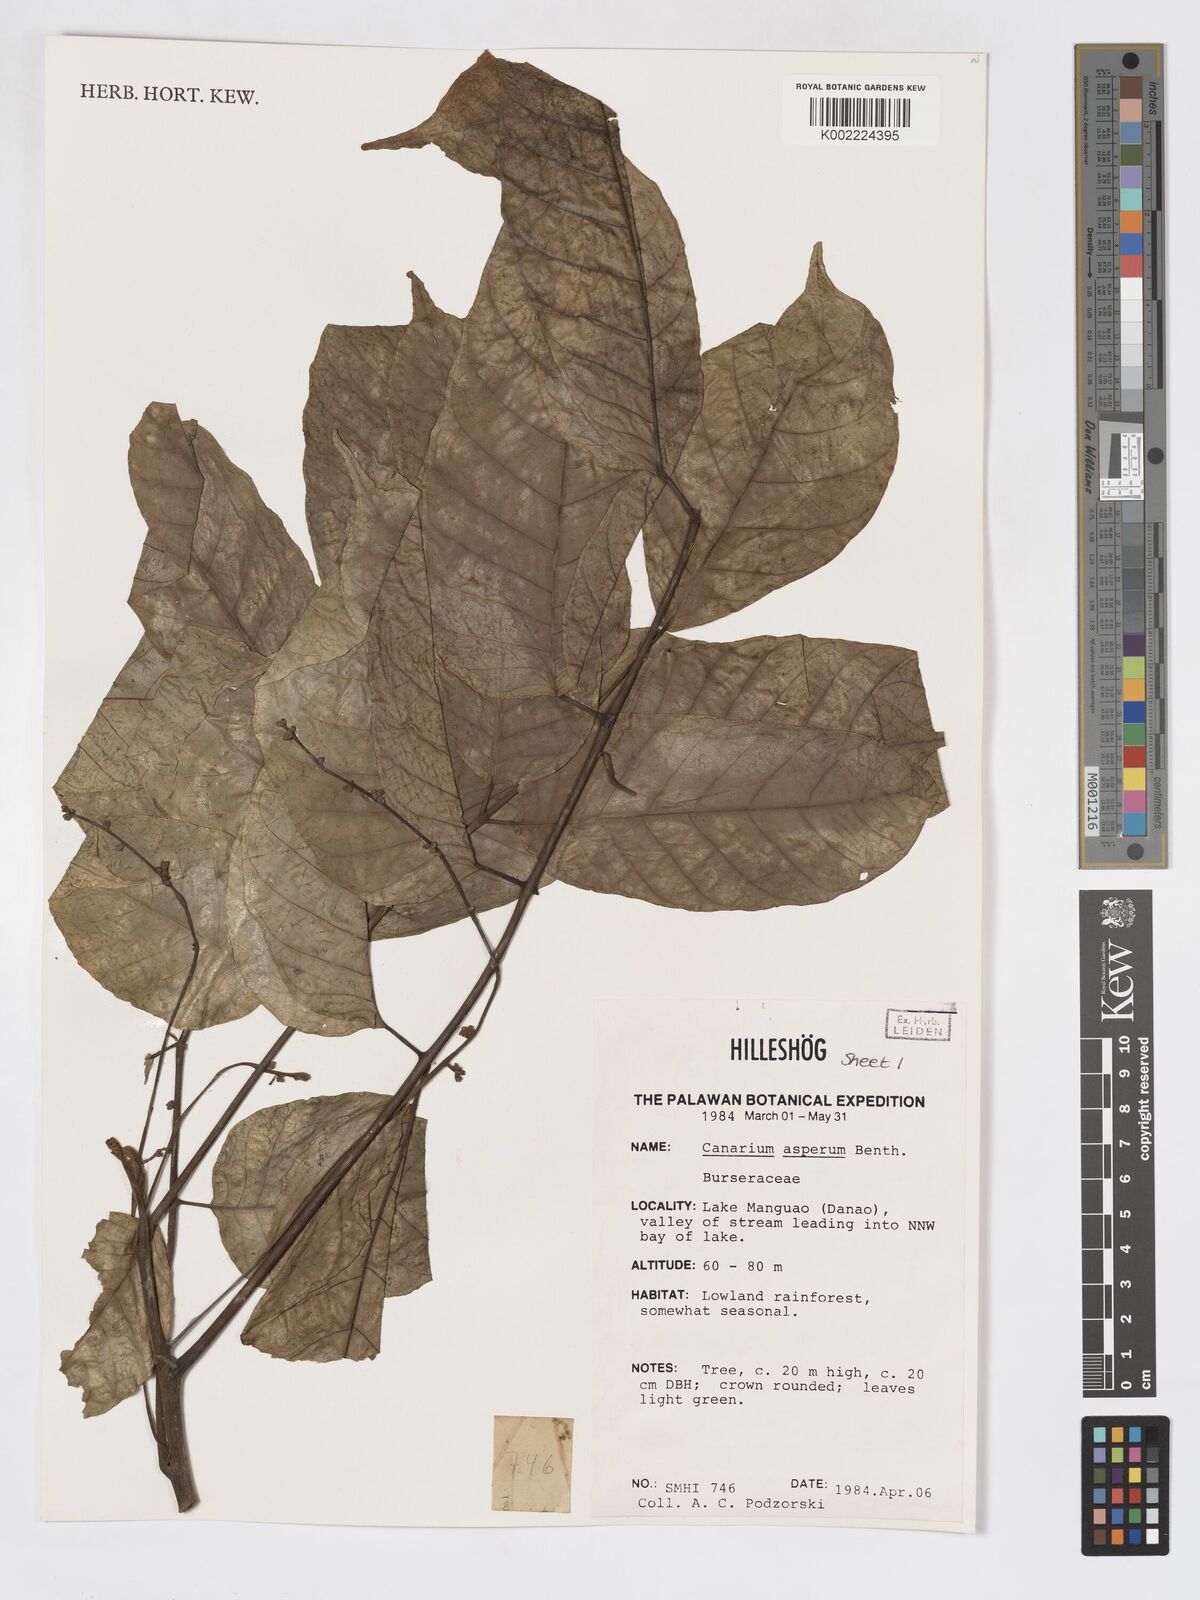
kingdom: Plantae
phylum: Tracheophyta
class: Magnoliopsida
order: Sapindales
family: Burseraceae
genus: Canarium
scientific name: Canarium asperum
